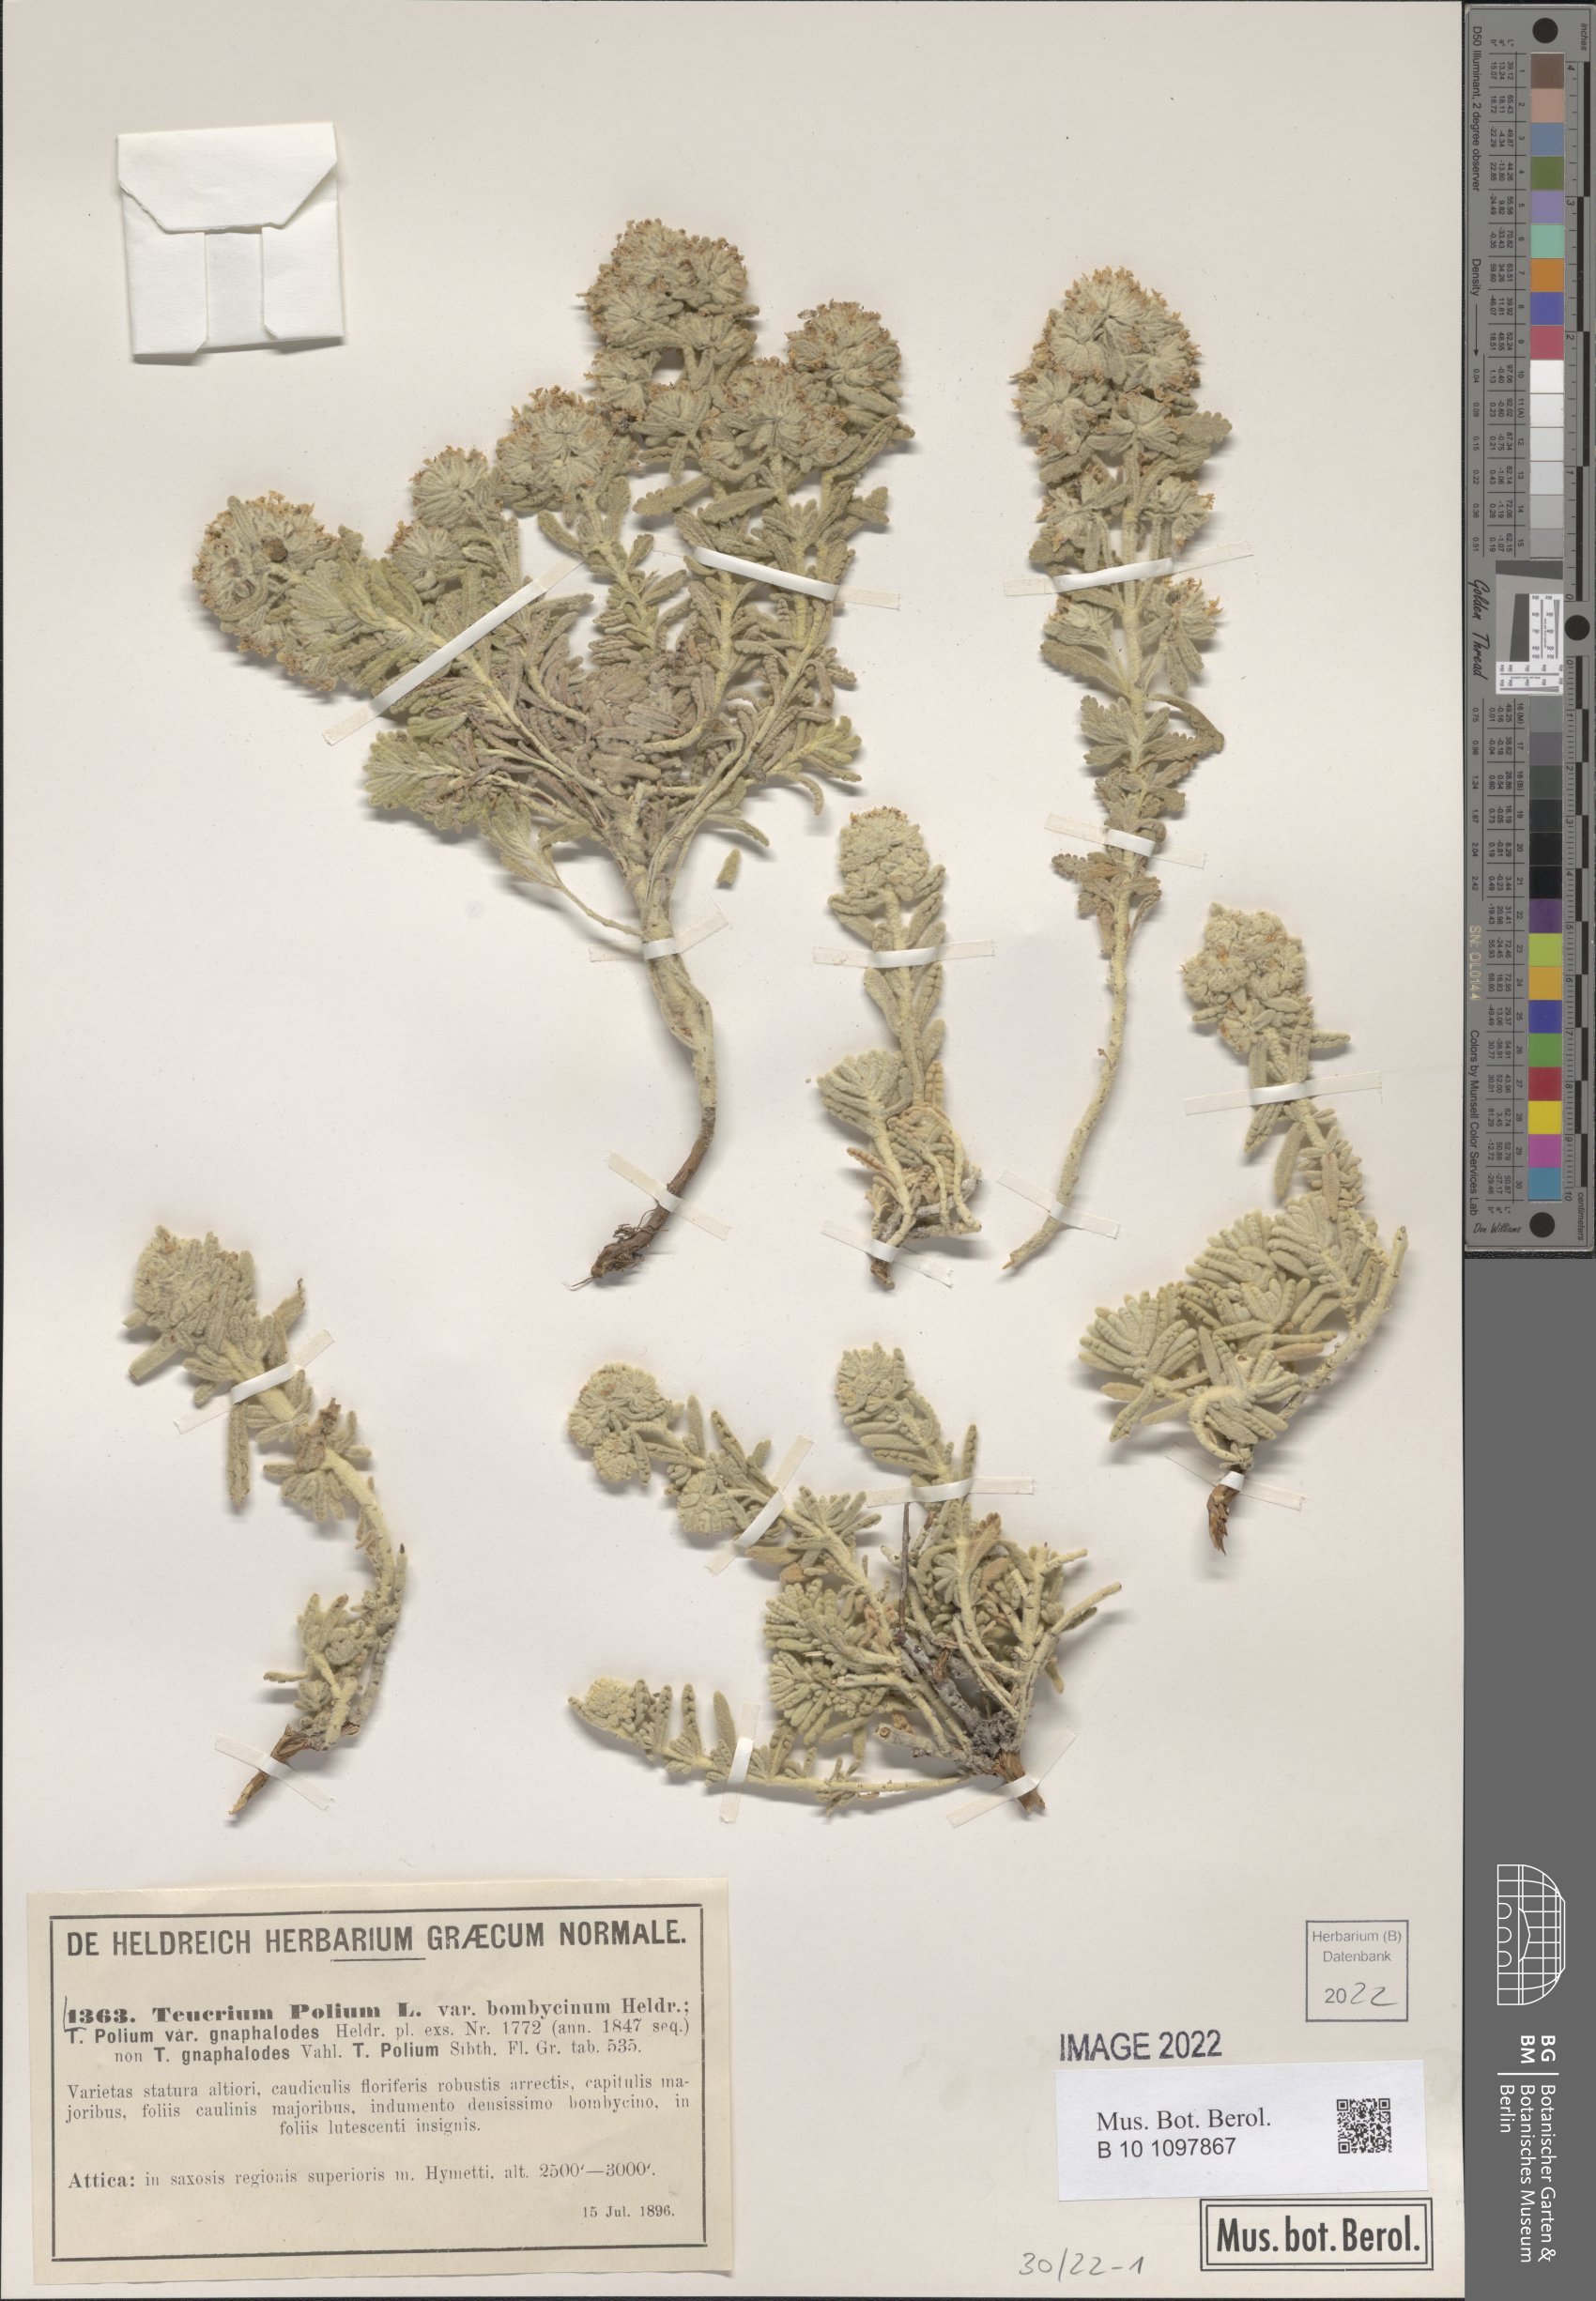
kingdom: Plantae
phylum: Tracheophyta
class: Magnoliopsida
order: Lamiales
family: Lamiaceae
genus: Teucrium
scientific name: Teucrium dunense
